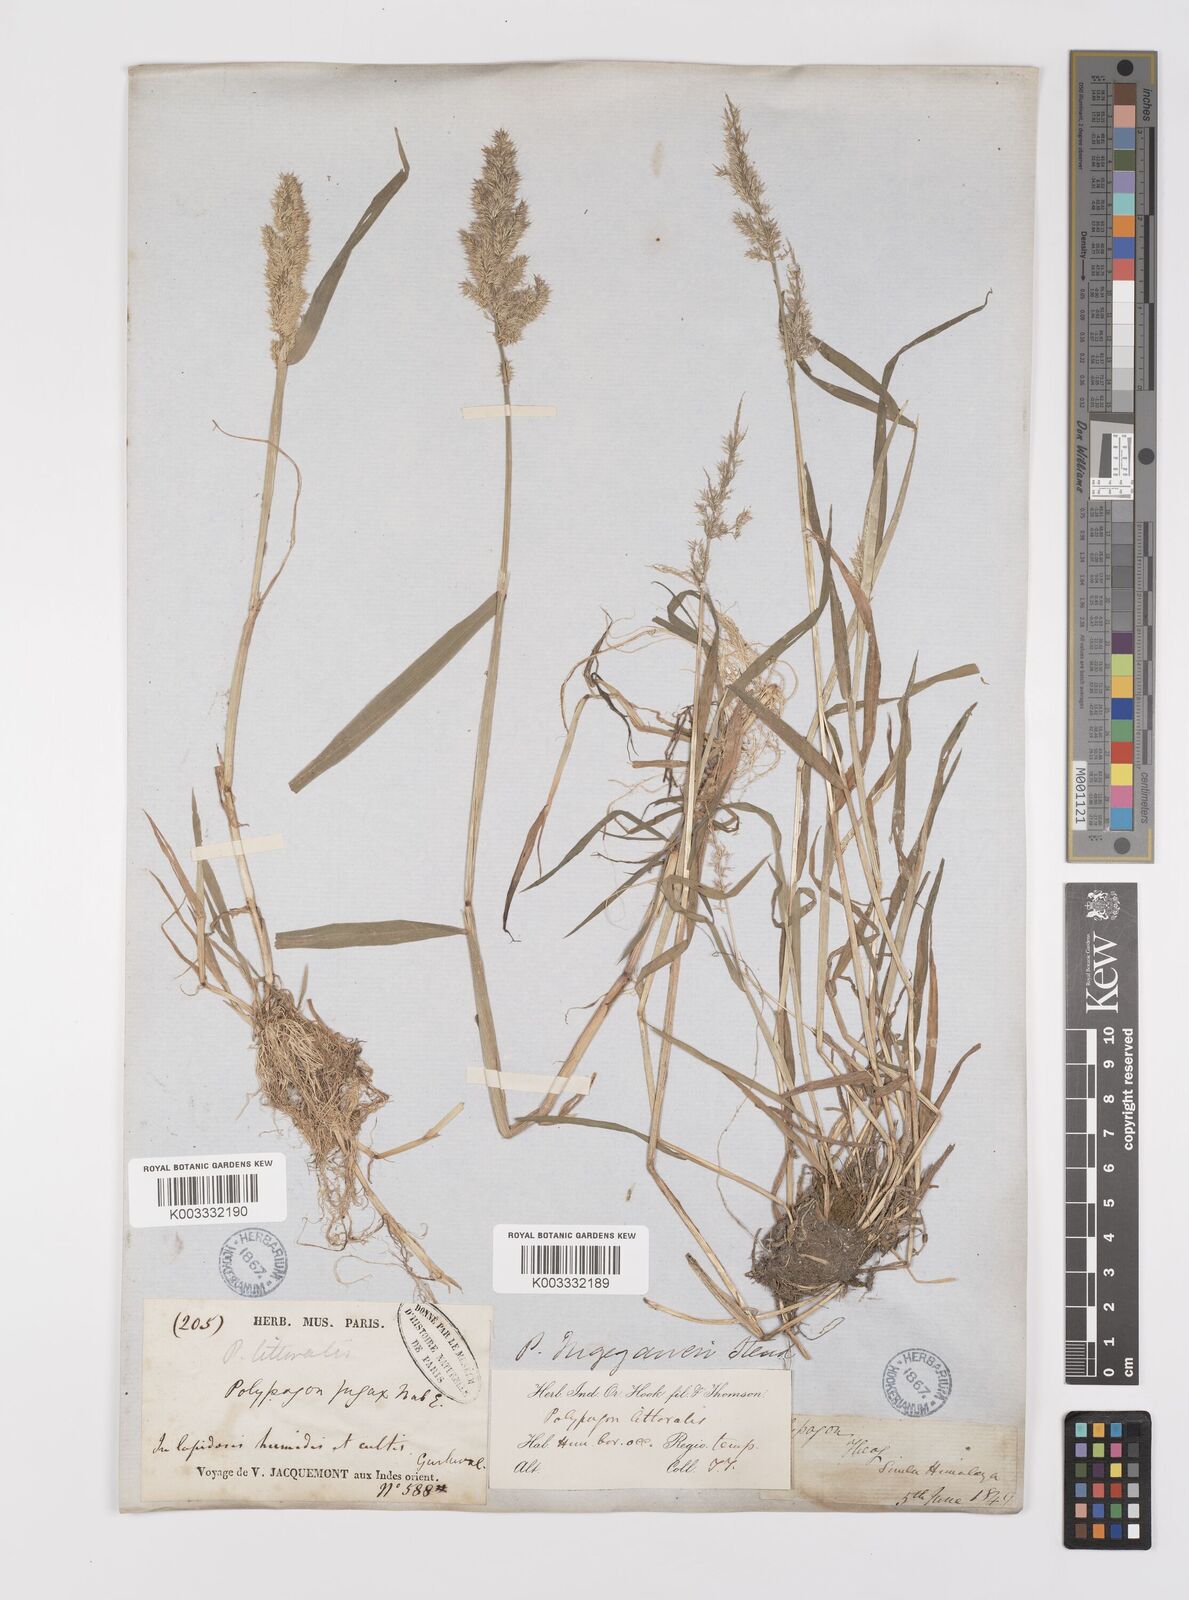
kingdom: Plantae
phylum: Tracheophyta
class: Liliopsida
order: Poales
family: Poaceae
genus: Polypogon
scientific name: Polypogon fugax
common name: Asia minor bluegrass
